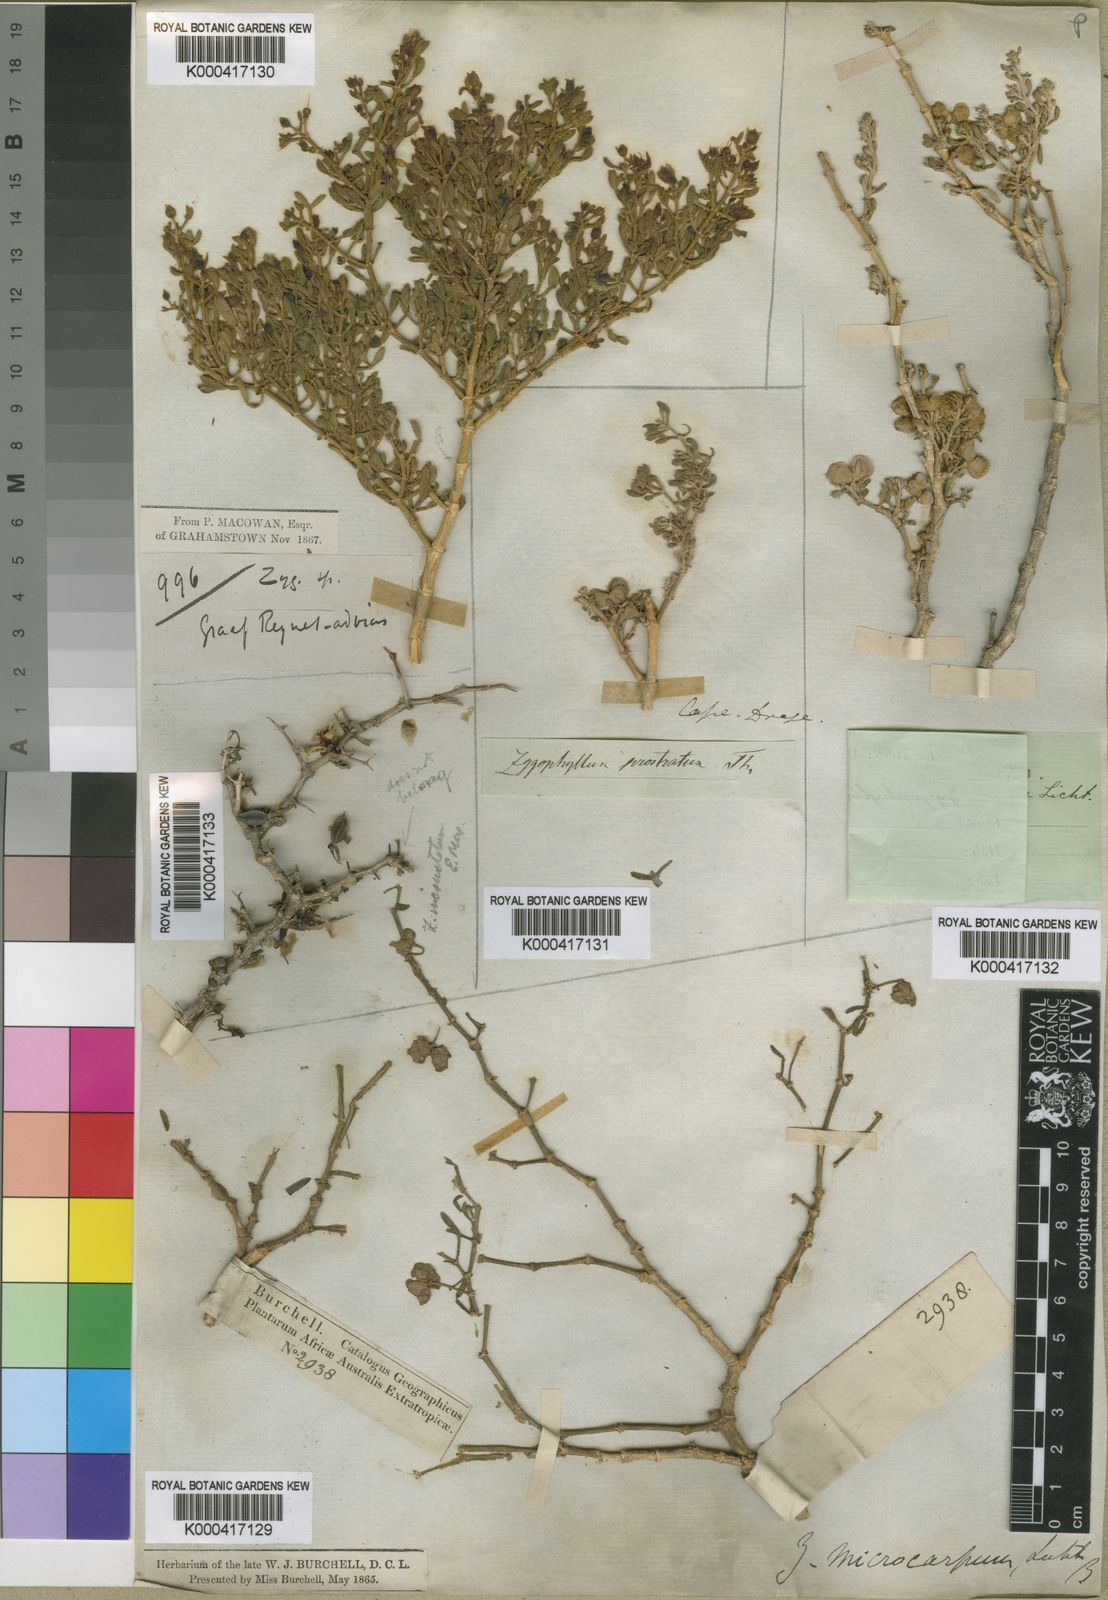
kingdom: Plantae
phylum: Tracheophyta
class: Magnoliopsida
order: Zygophyllales
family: Zygophyllaceae
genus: Tetraena
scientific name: Tetraena microcarpa
